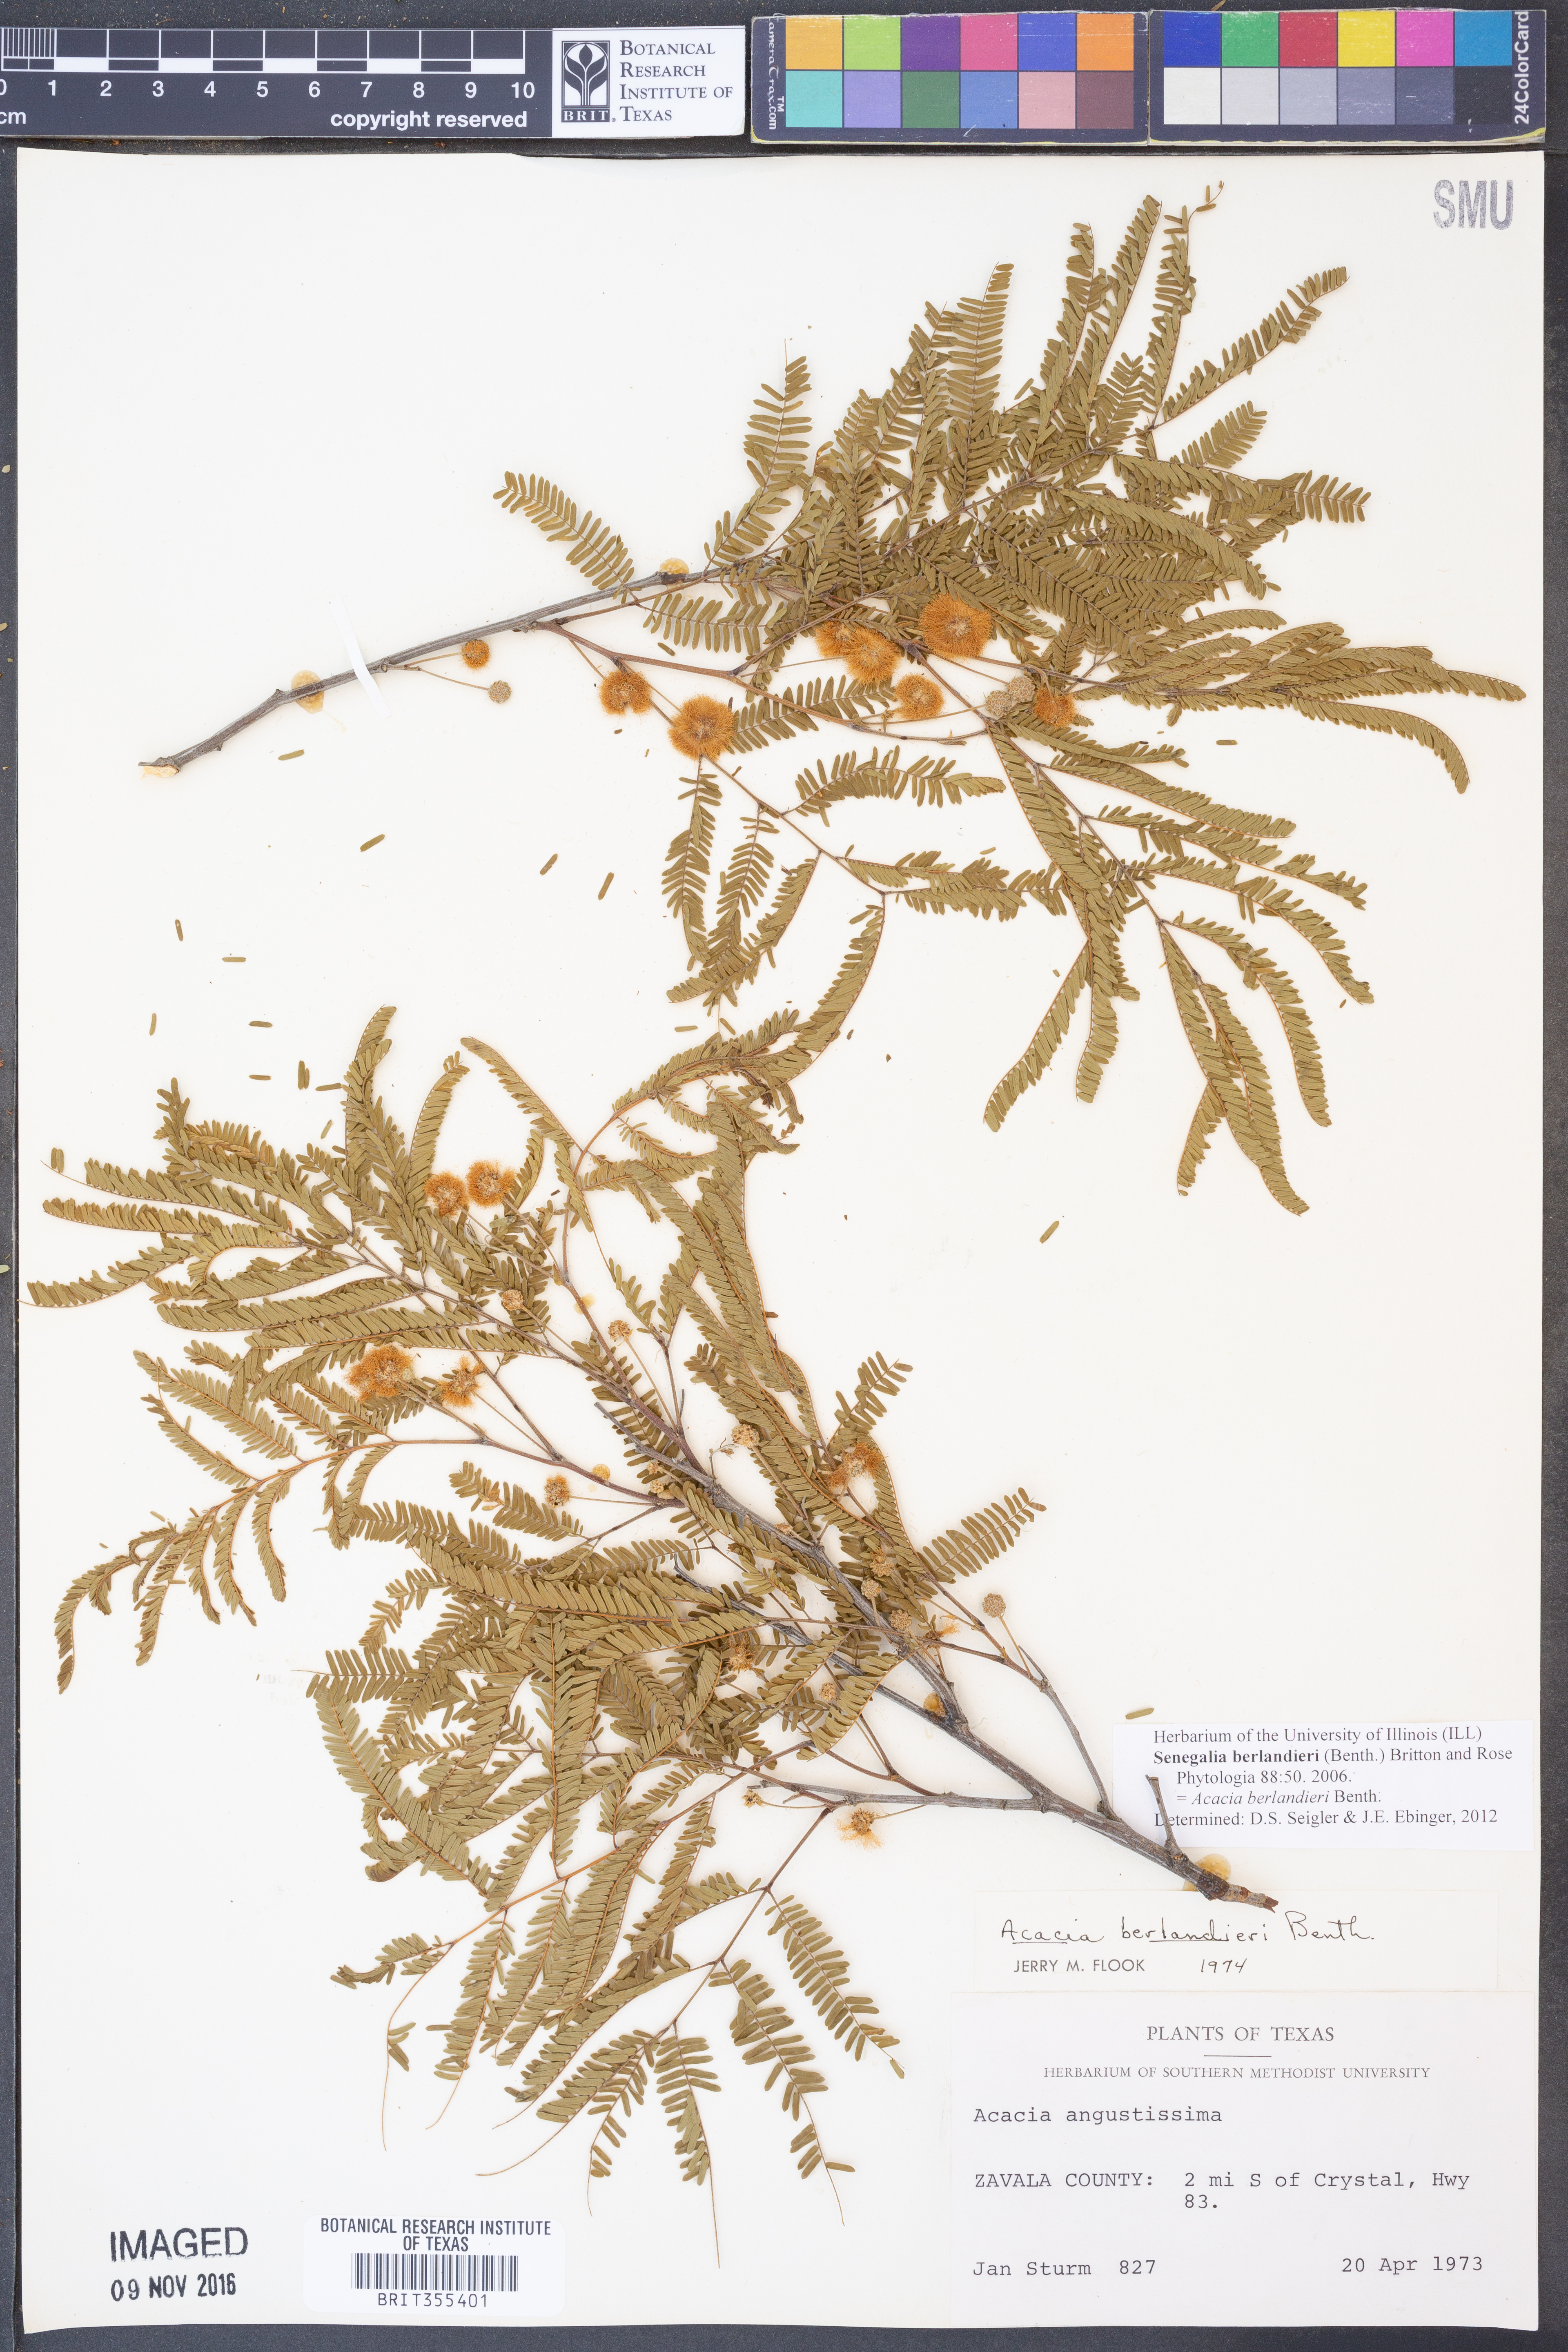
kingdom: Plantae
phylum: Tracheophyta
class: Magnoliopsida
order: Fabales
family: Fabaceae
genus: Senegalia
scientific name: Senegalia berlandieri
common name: Berlandier acacia
